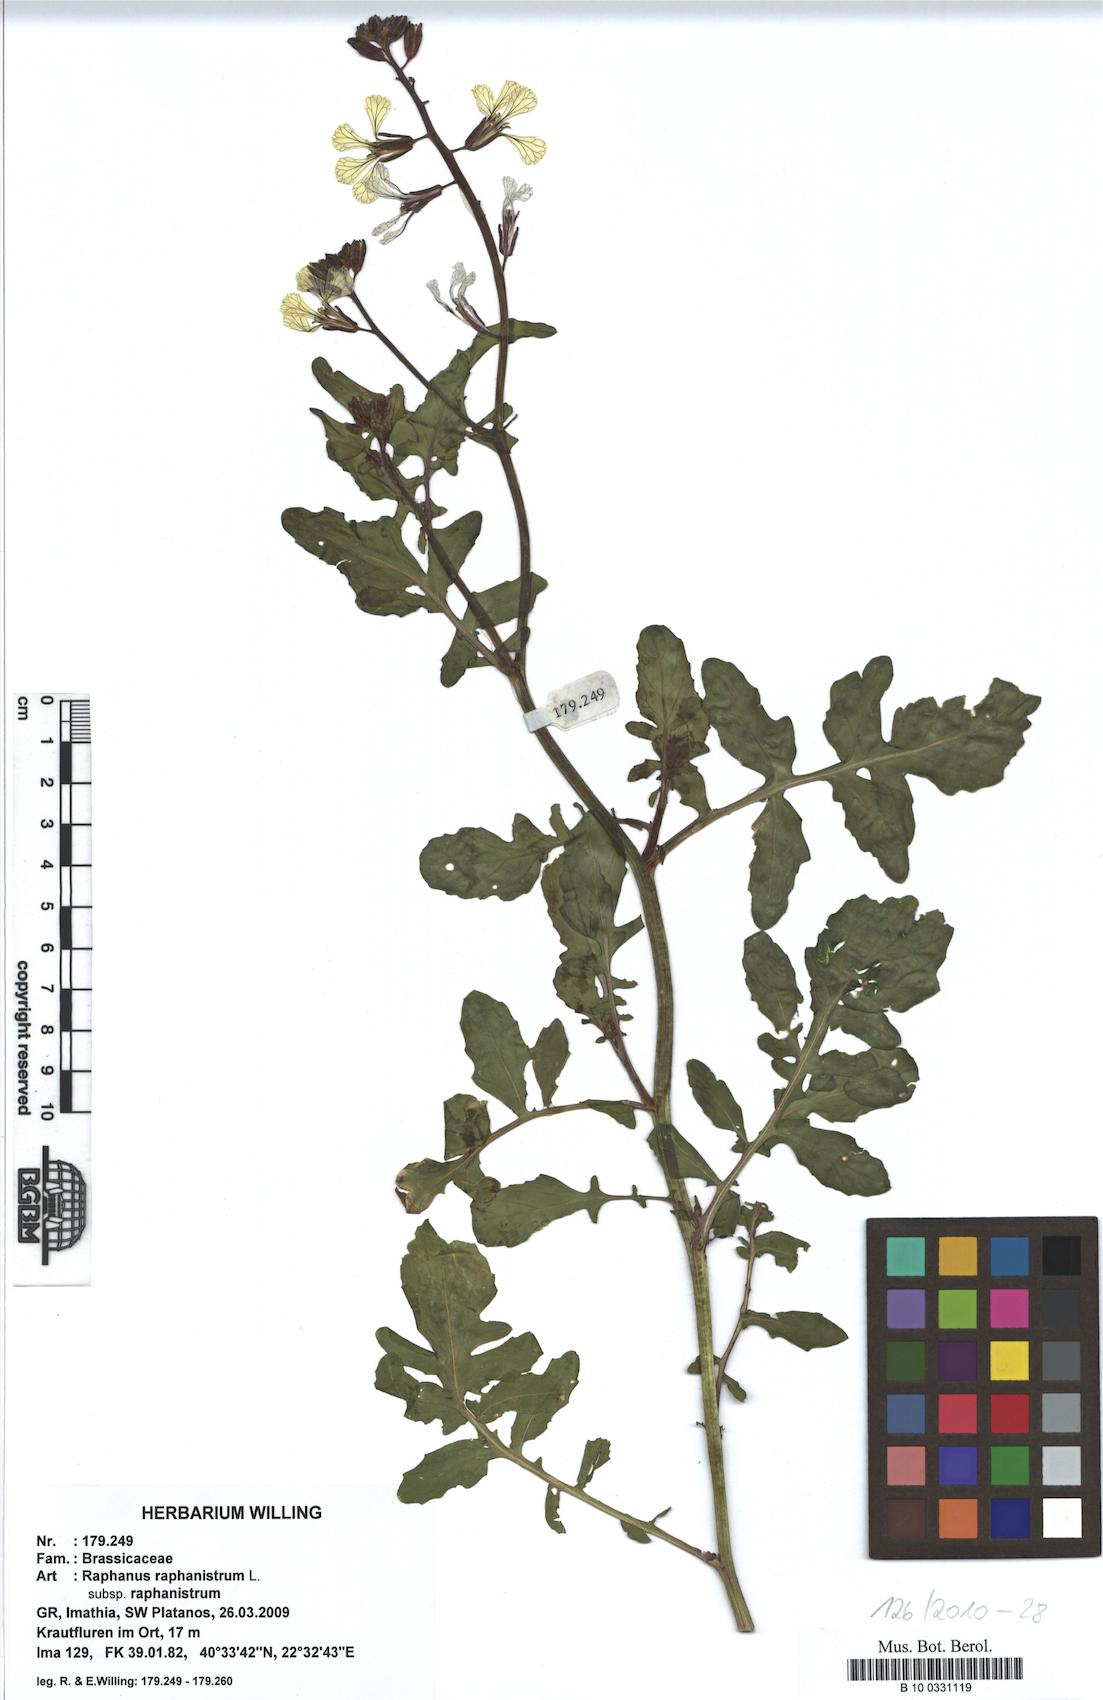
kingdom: Plantae
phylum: Tracheophyta
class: Magnoliopsida
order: Brassicales
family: Brassicaceae
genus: Raphanus
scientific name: Raphanus raphanistrum
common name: Wild radish
